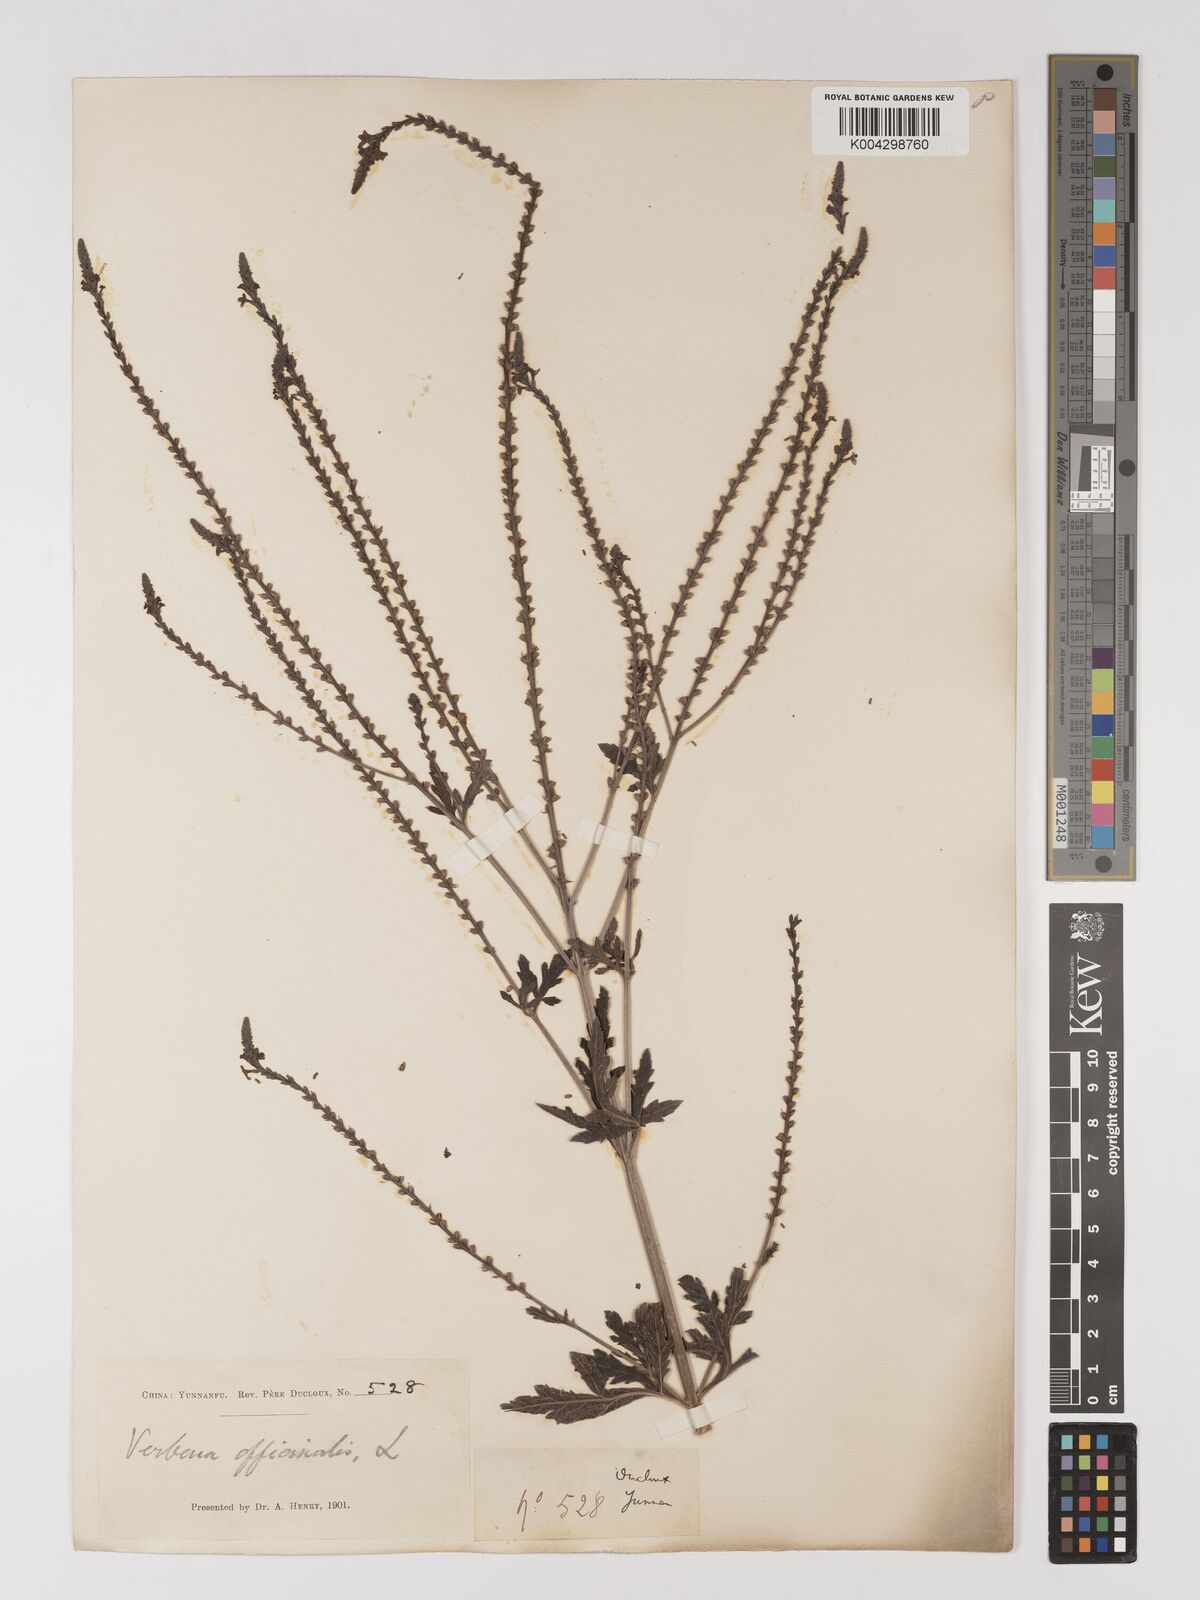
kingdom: Plantae
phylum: Tracheophyta
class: Magnoliopsida
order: Lamiales
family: Verbenaceae
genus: Verbena
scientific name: Verbena officinalis
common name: Vervain
